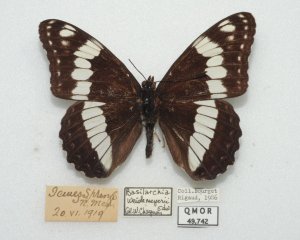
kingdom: Animalia
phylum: Arthropoda
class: Insecta
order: Lepidoptera
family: Nymphalidae
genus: Limenitis
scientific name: Limenitis weidemeyerii
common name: Weidemeyer's Admiral
